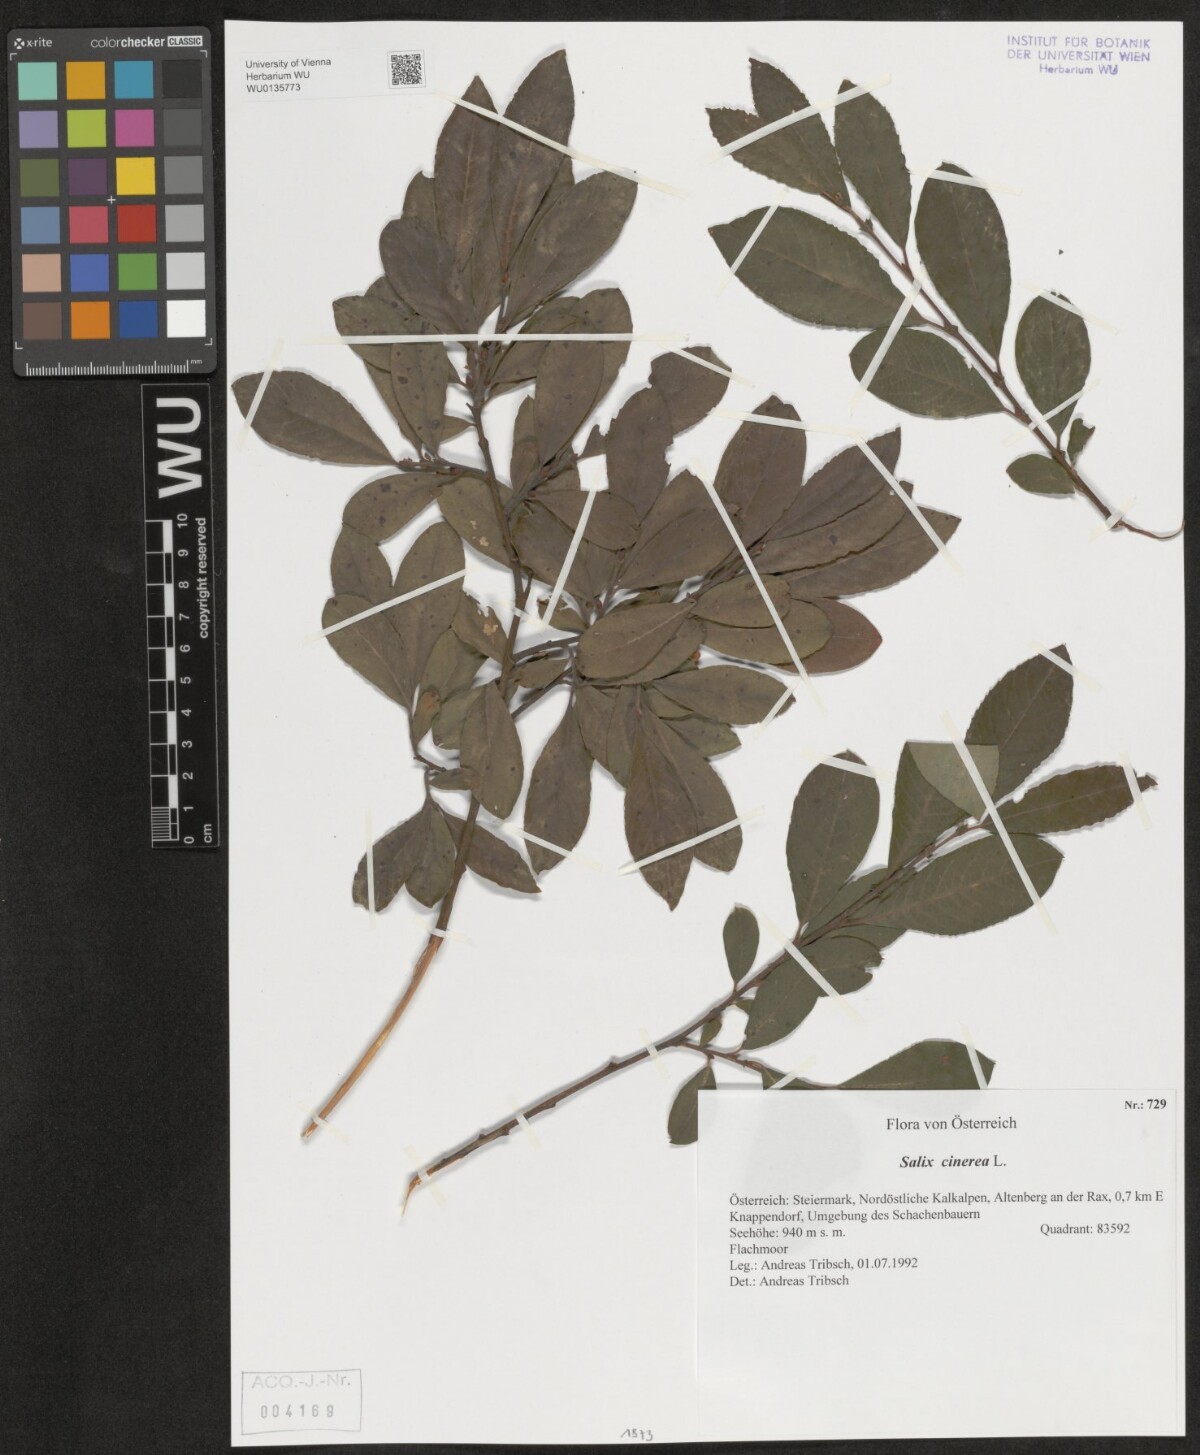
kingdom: Plantae
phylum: Tracheophyta
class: Magnoliopsida
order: Malpighiales
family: Salicaceae
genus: Salix
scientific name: Salix cinerea
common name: Common sallow
